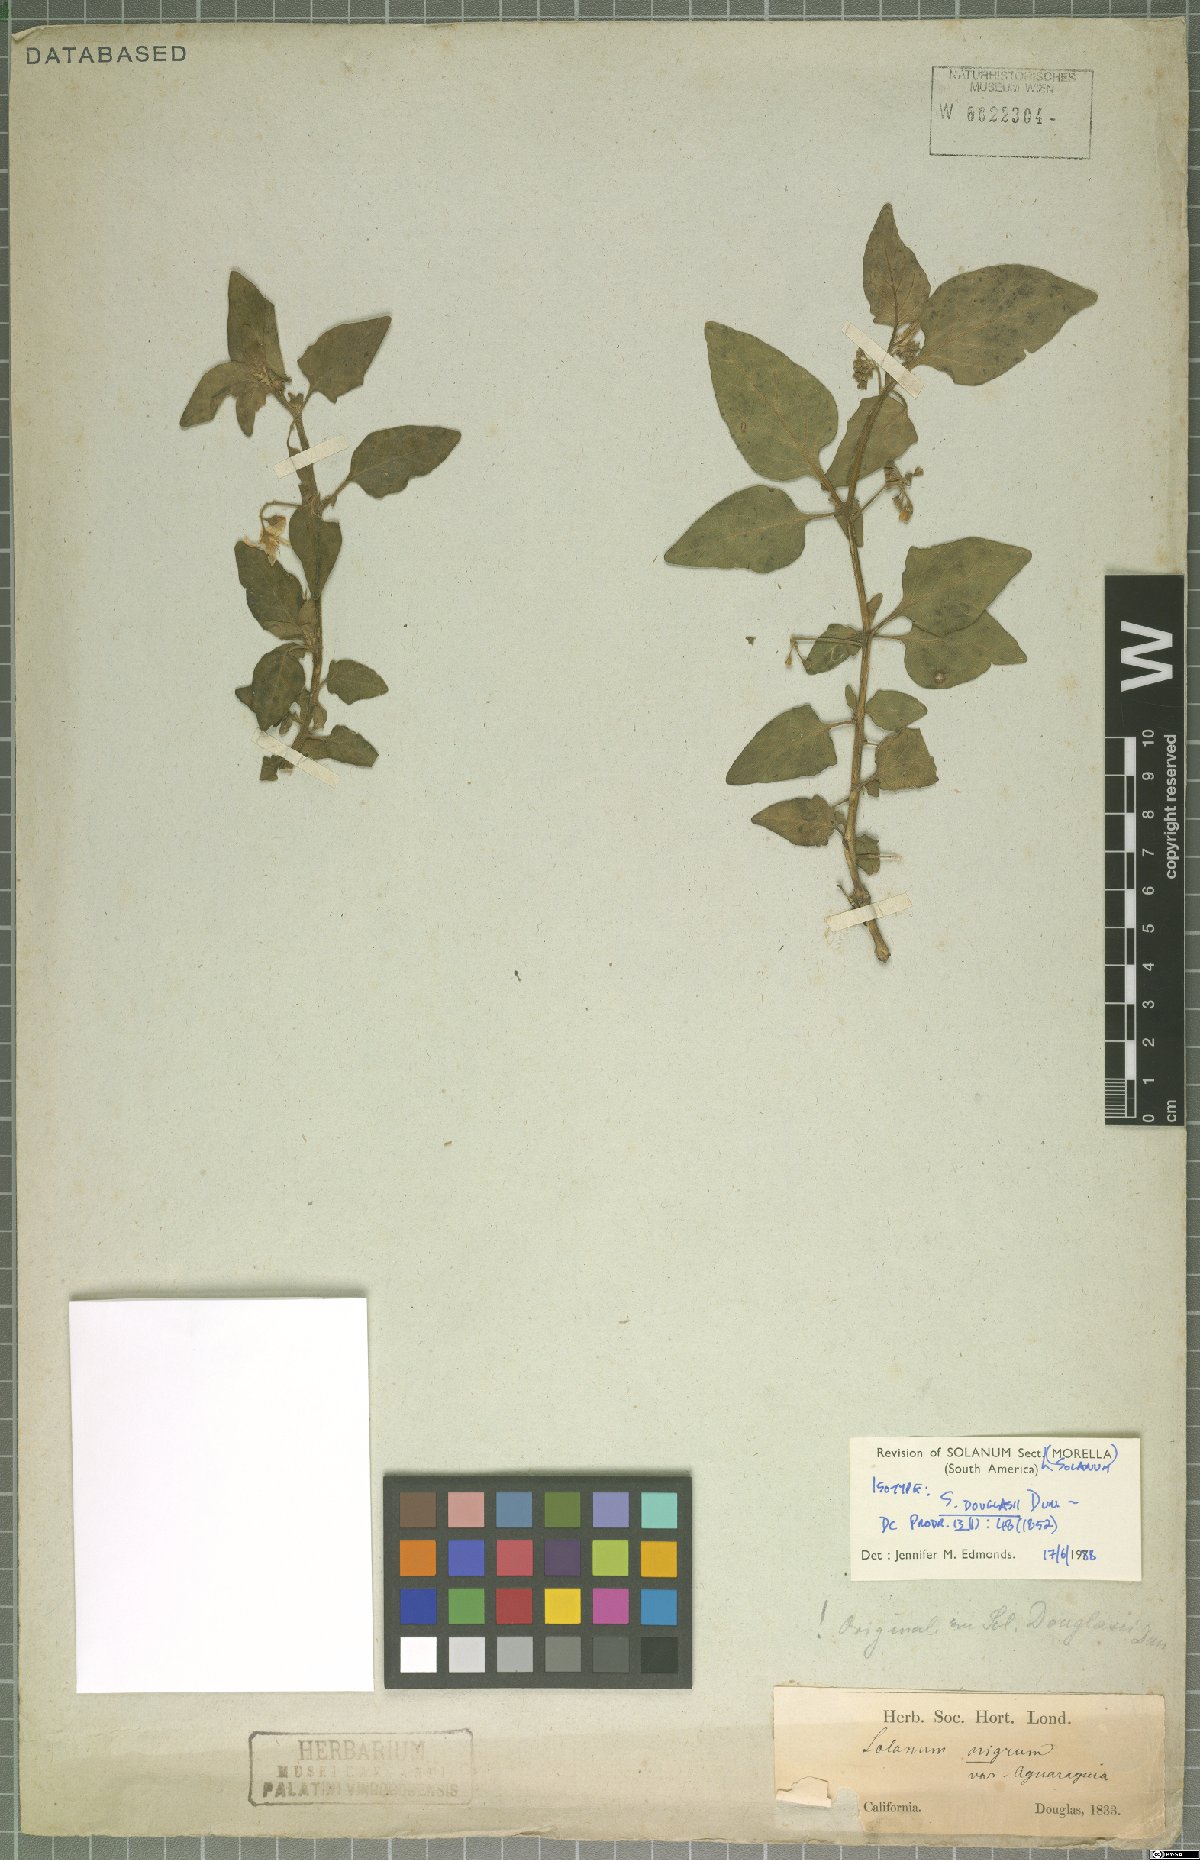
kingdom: Plantae
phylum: Tracheophyta
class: Magnoliopsida
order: Solanales
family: Solanaceae
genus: Solanum
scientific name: Solanum douglasii
